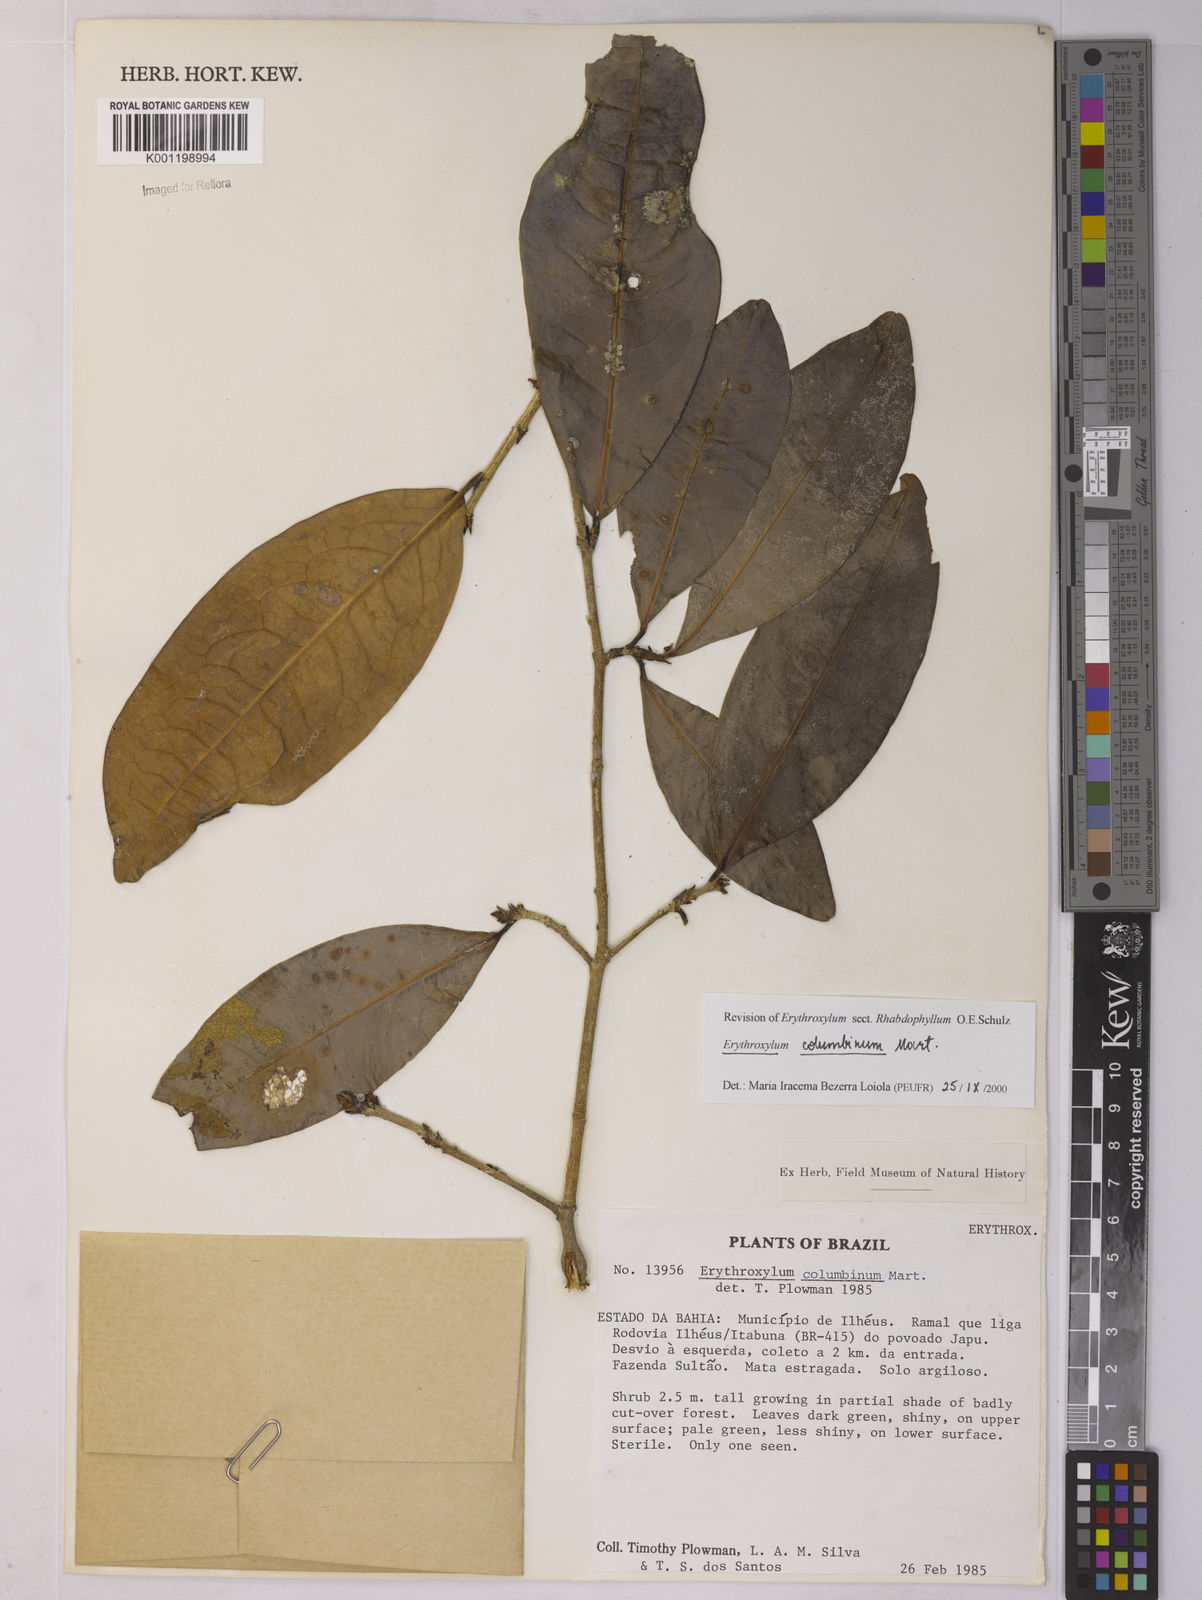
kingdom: Plantae
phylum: Tracheophyta
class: Magnoliopsida
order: Malpighiales
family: Erythroxylaceae
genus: Erythroxylum
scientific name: Erythroxylum columbinum
